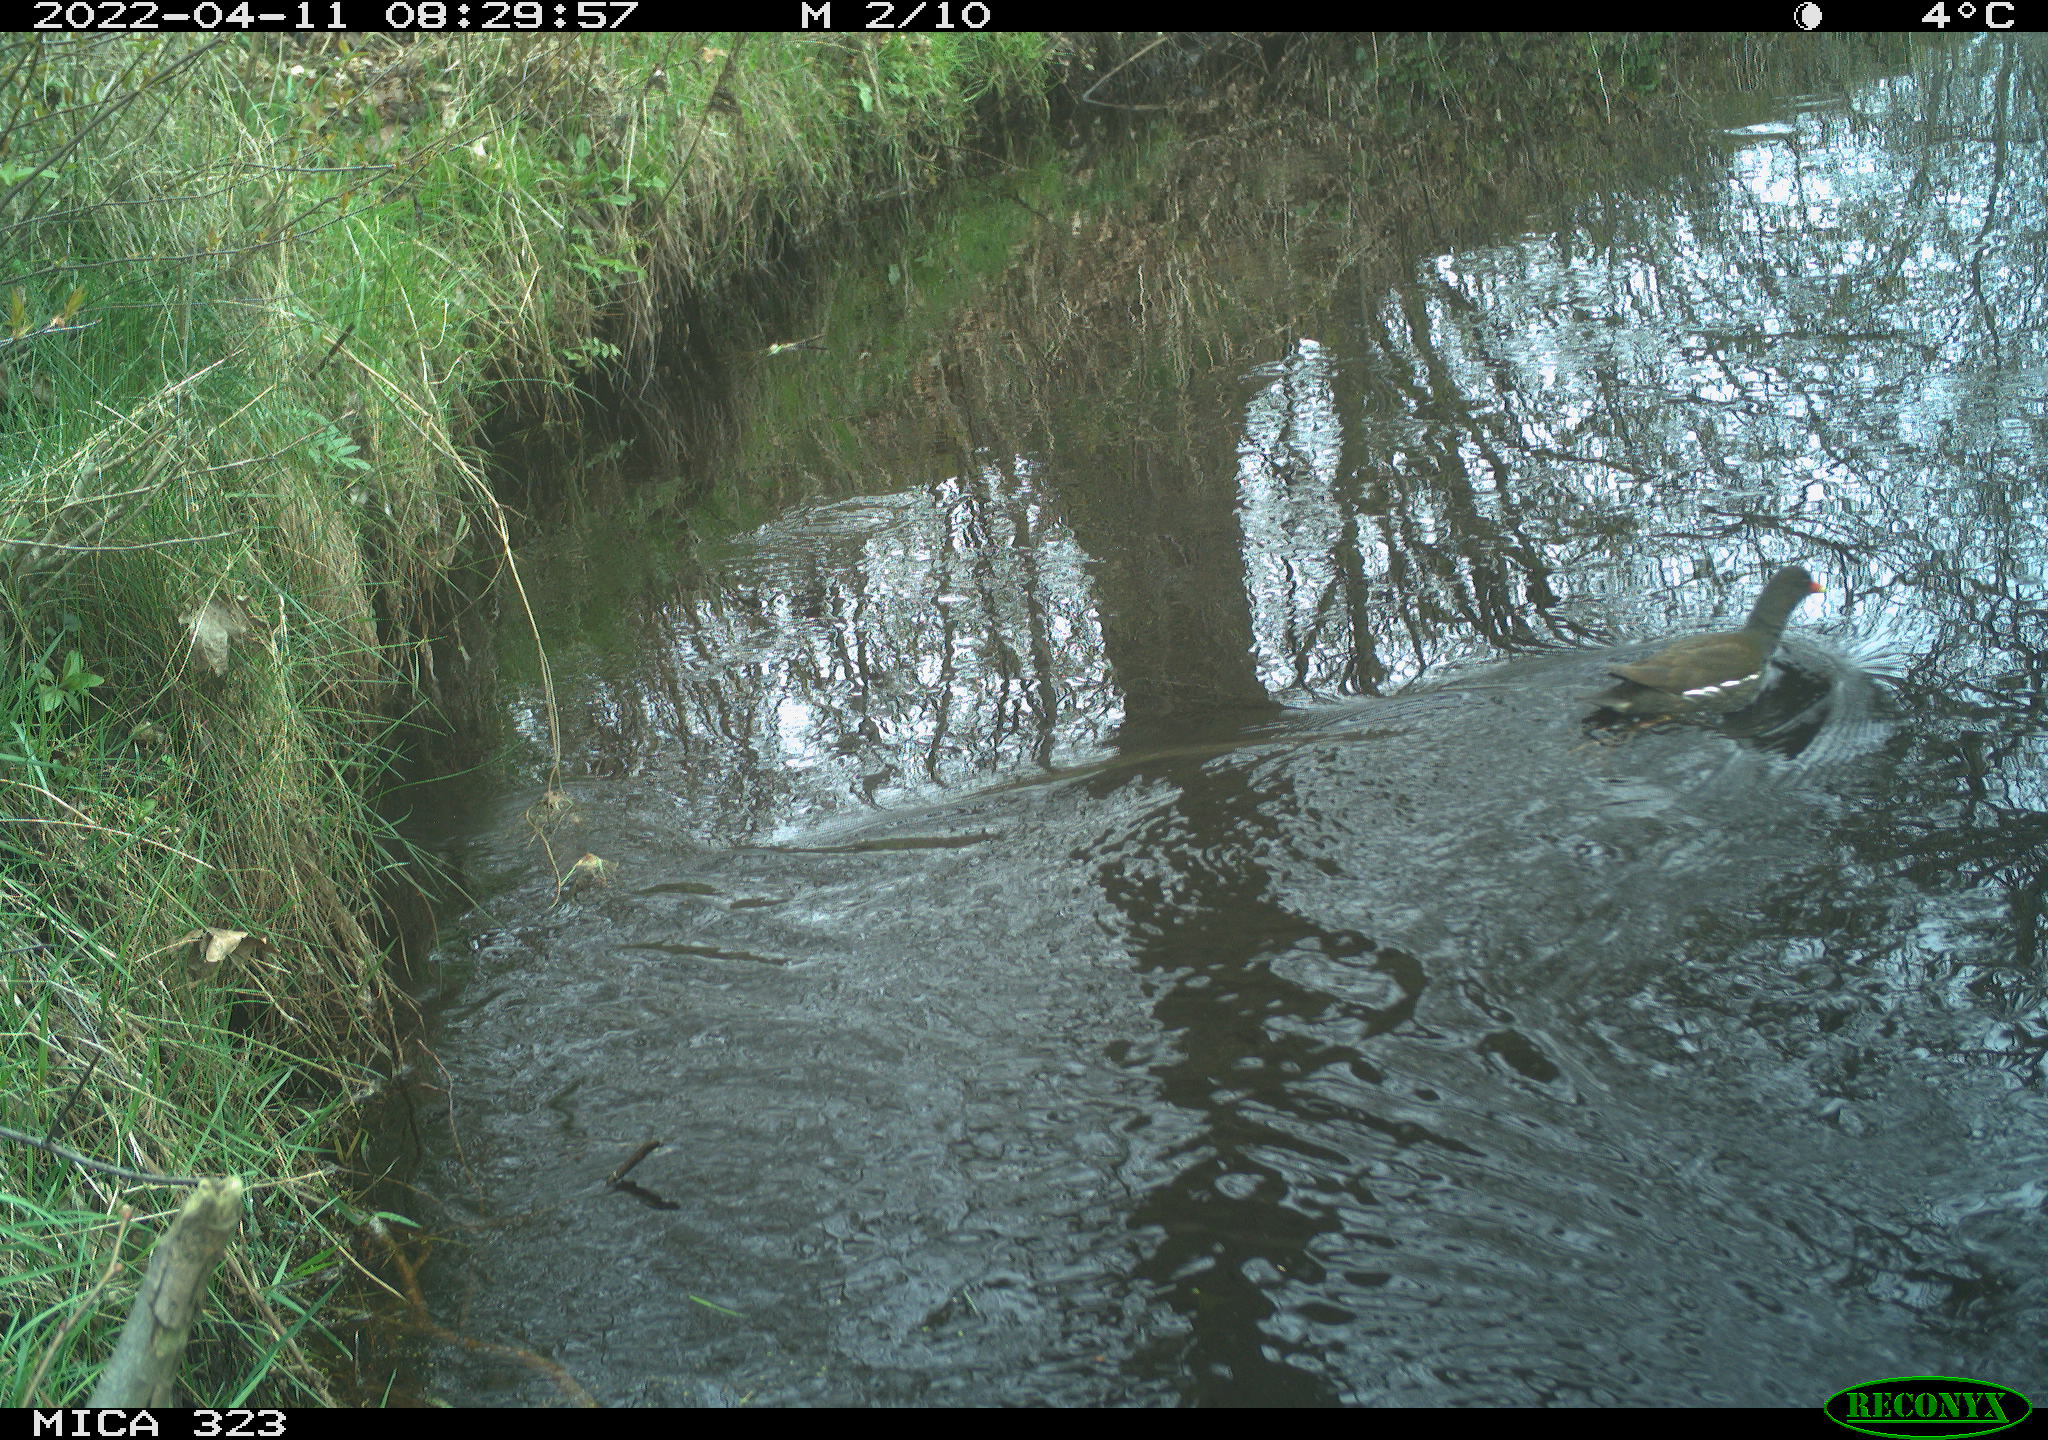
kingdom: Animalia
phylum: Chordata
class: Aves
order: Gruiformes
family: Rallidae
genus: Gallinula
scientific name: Gallinula chloropus
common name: Common moorhen
